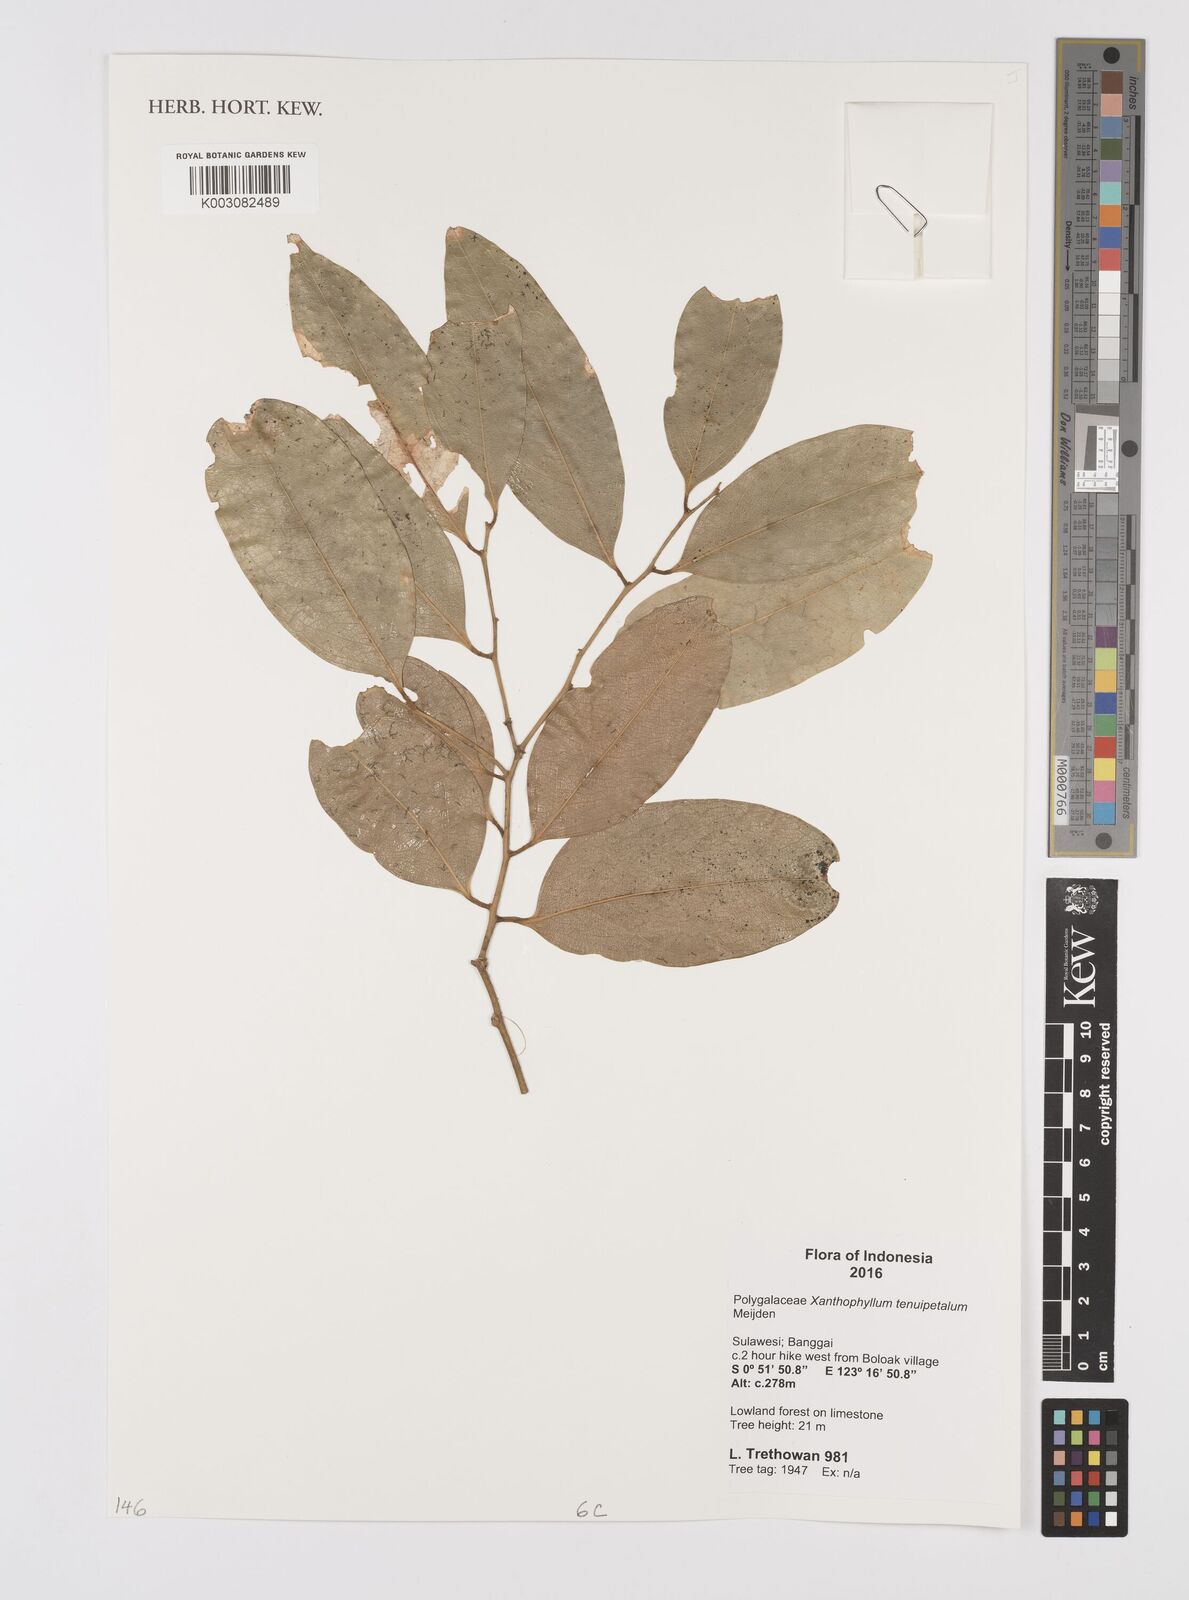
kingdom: Plantae
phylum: Tracheophyta
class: Magnoliopsida
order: Fabales
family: Polygalaceae
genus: Xanthophyllum
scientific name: Xanthophyllum tenuipetalum
